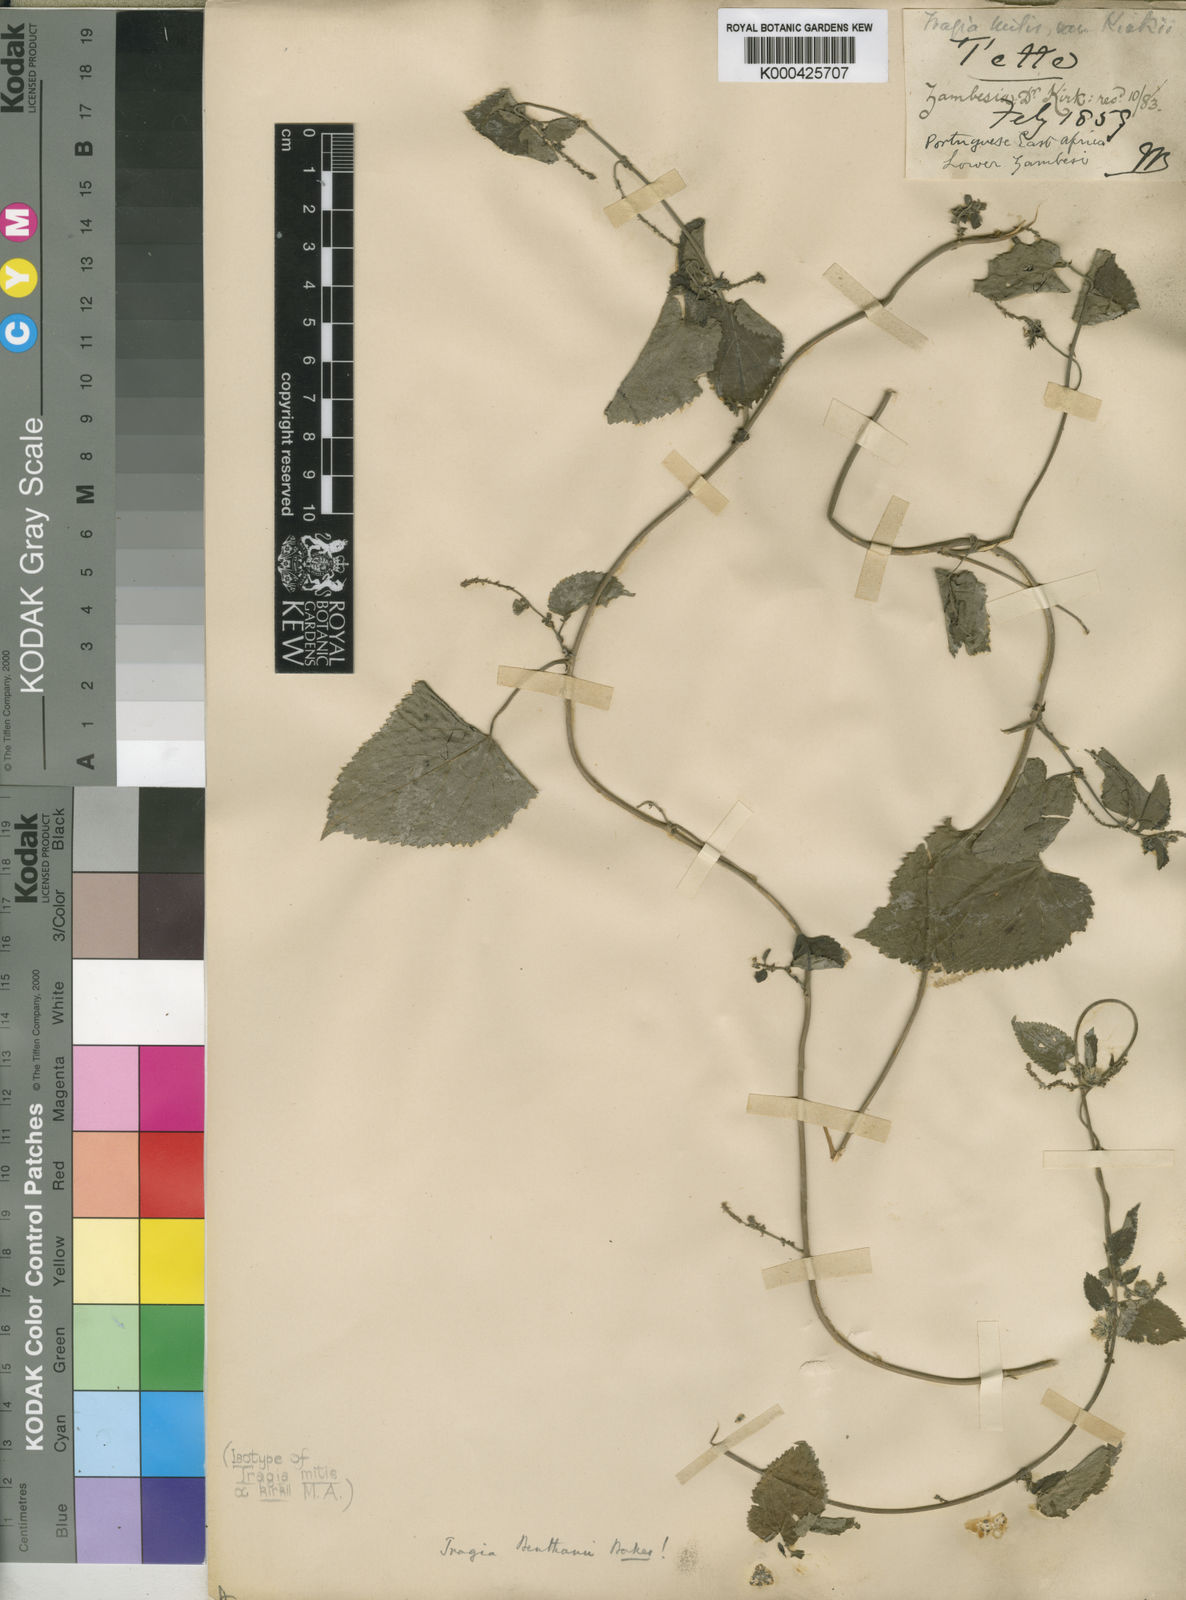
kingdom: Plantae
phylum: Tracheophyta
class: Magnoliopsida
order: Malpighiales
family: Euphorbiaceae
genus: Tragia
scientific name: Tragia benthamii
